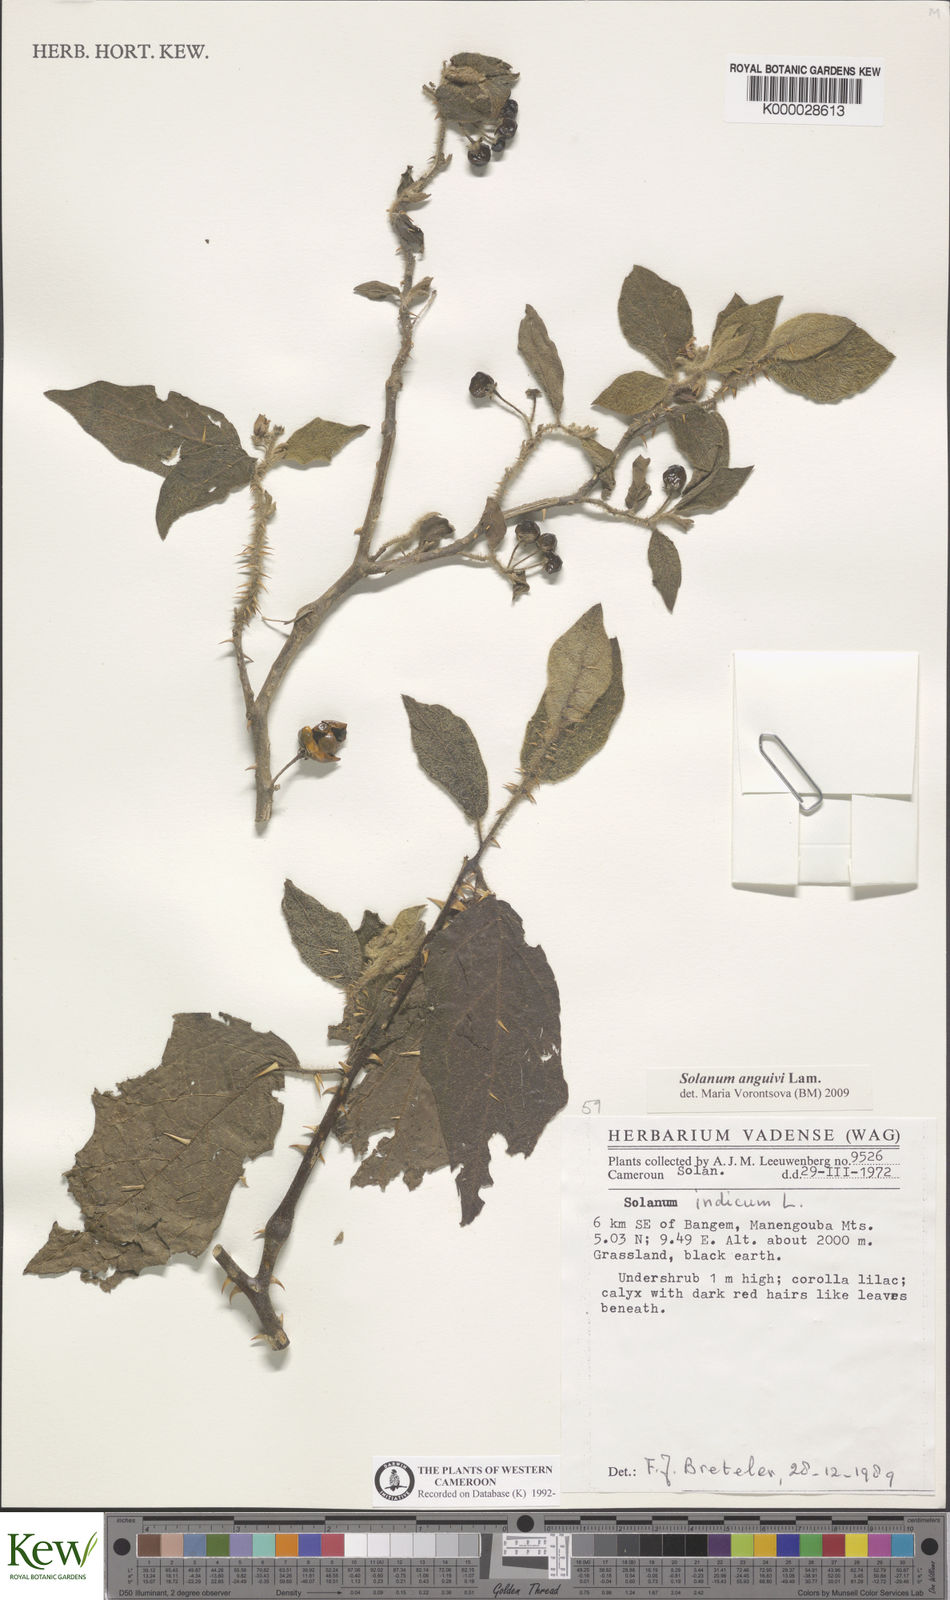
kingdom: Plantae
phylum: Tracheophyta
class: Magnoliopsida
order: Solanales
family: Solanaceae
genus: Solanum
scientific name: Solanum anguivi
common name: Forest bitterberry
